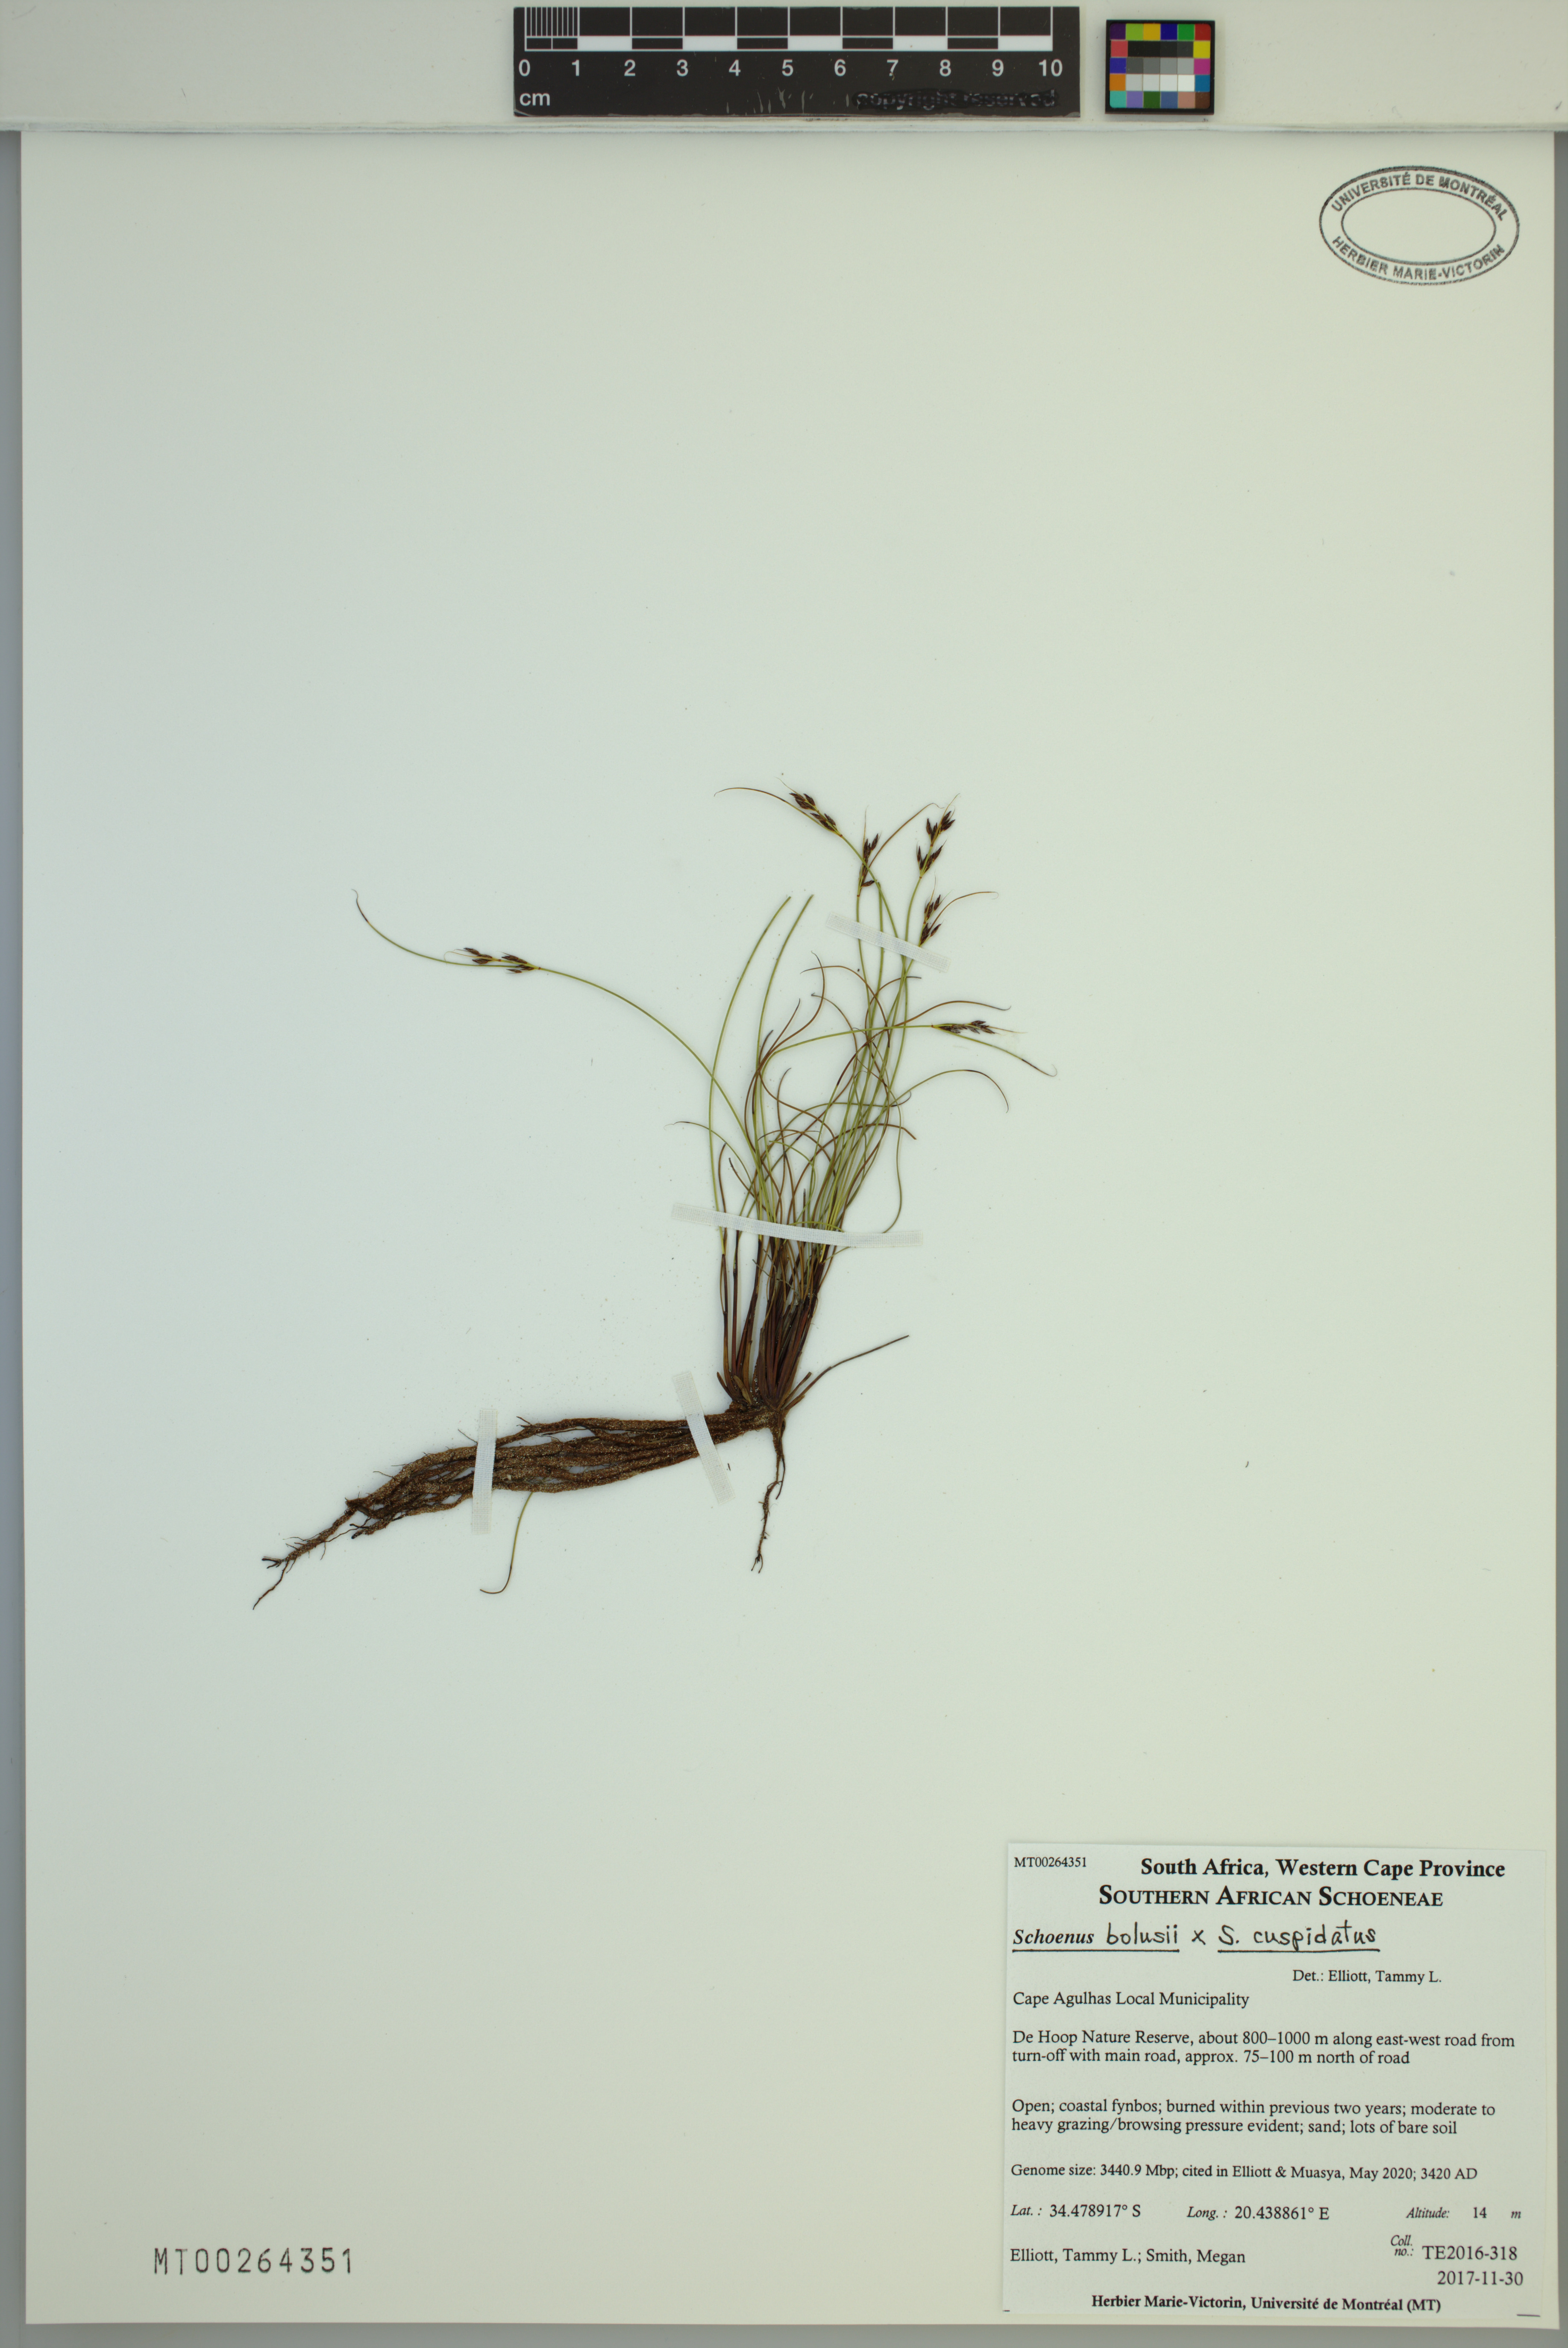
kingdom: Plantae
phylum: Tracheophyta
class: Liliopsida
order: Poales
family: Cyperaceae
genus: Schoenus
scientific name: Schoenus bolusii
